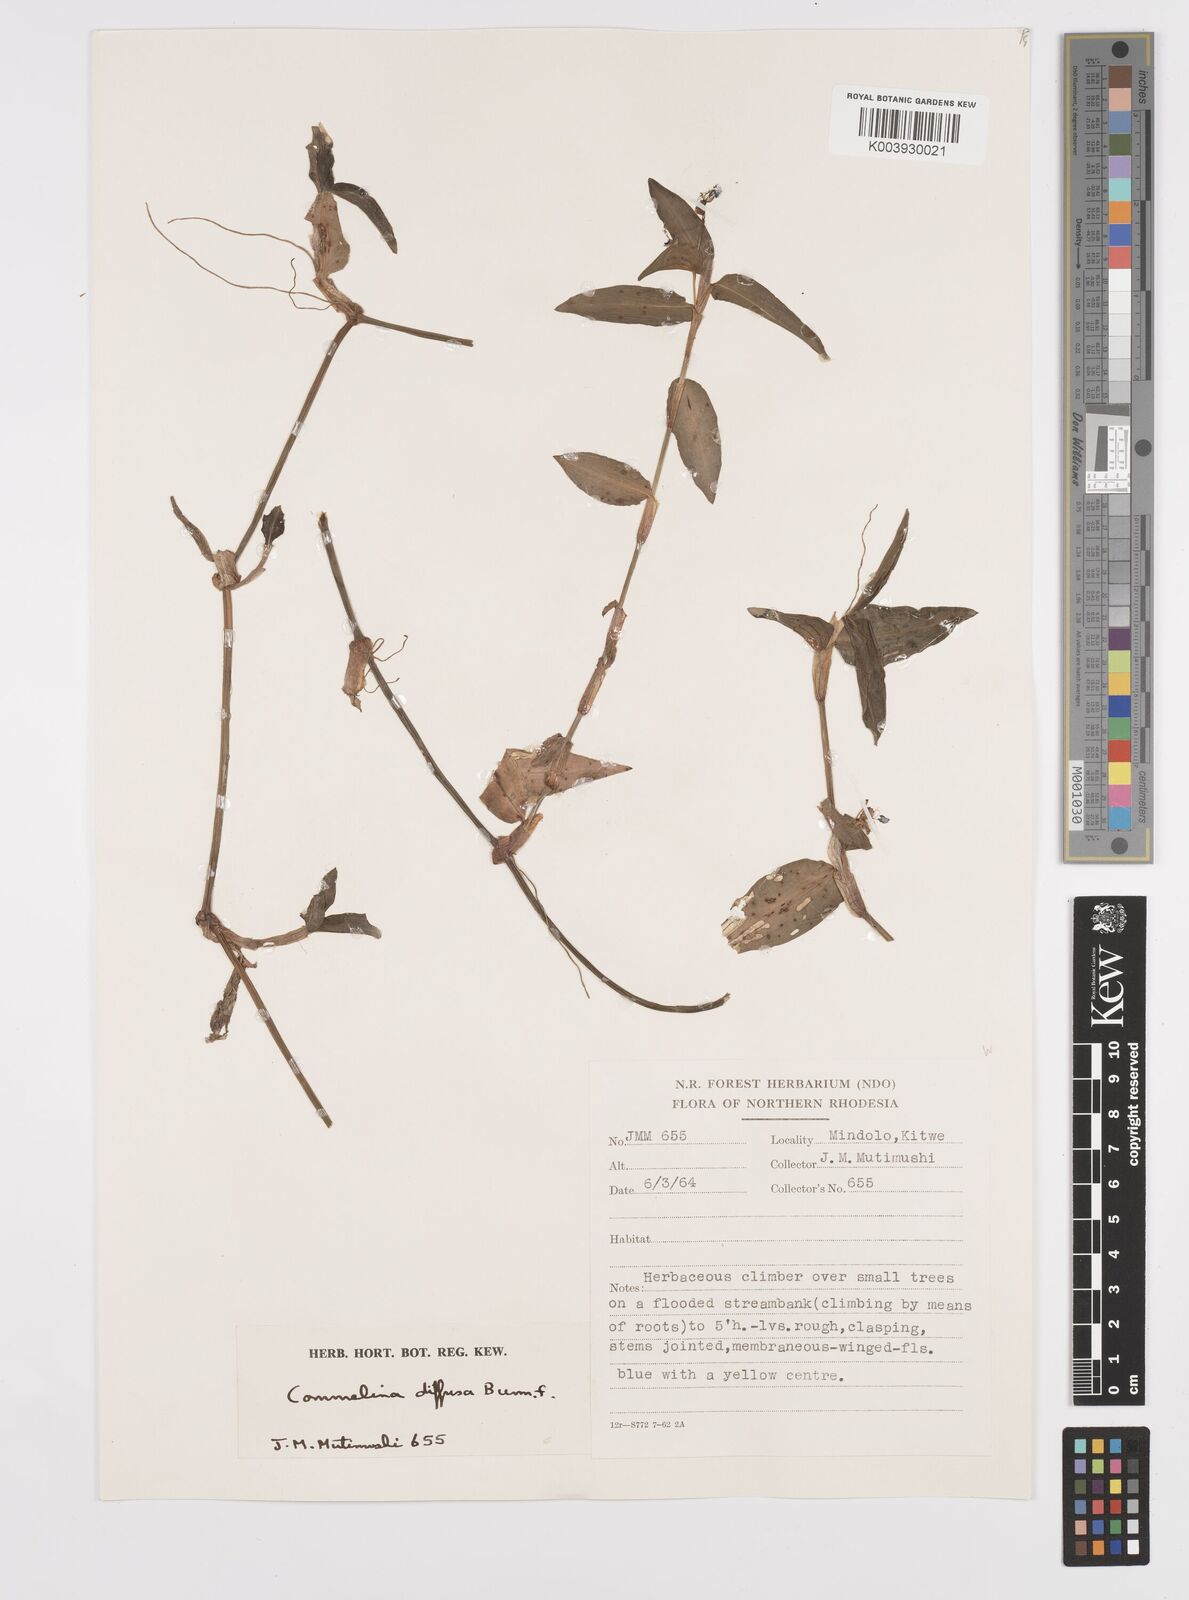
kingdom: Plantae
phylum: Tracheophyta
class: Liliopsida
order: Commelinales
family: Commelinaceae
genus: Commelina
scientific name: Commelina diffusa
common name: Climbing dayflower
